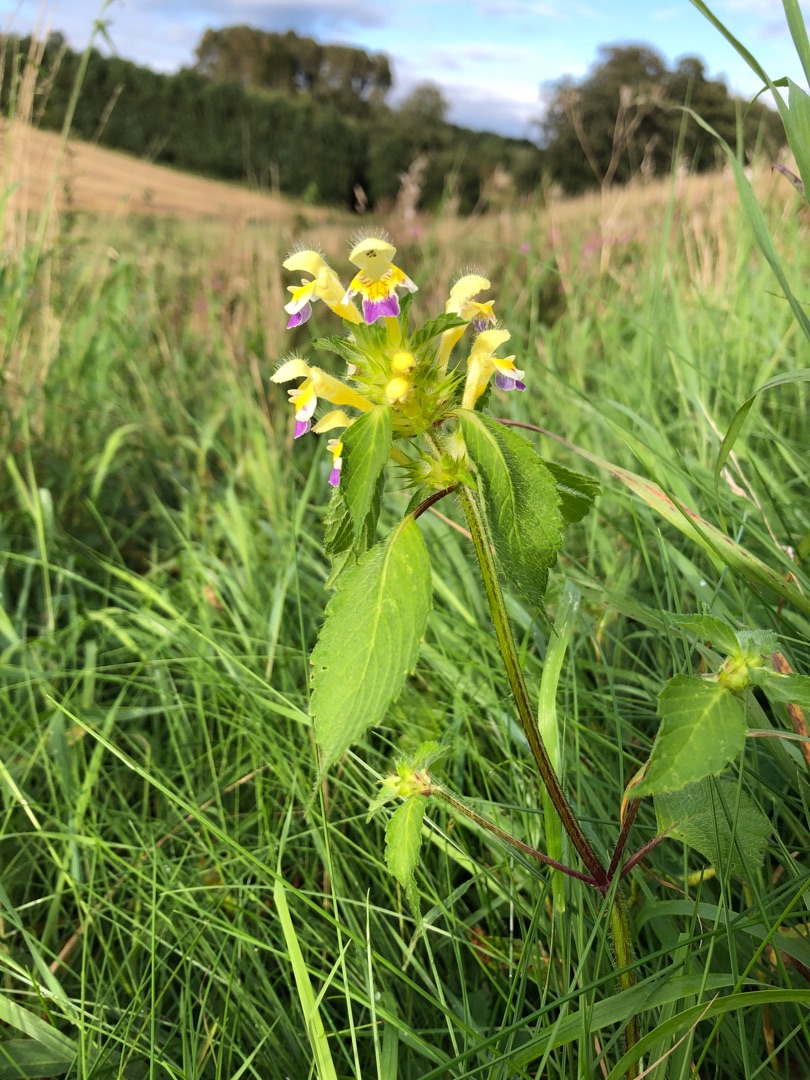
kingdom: Plantae
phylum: Tracheophyta
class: Magnoliopsida
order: Lamiales
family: Lamiaceae
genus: Galeopsis
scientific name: Galeopsis speciosa
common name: Hamp-hanekro
